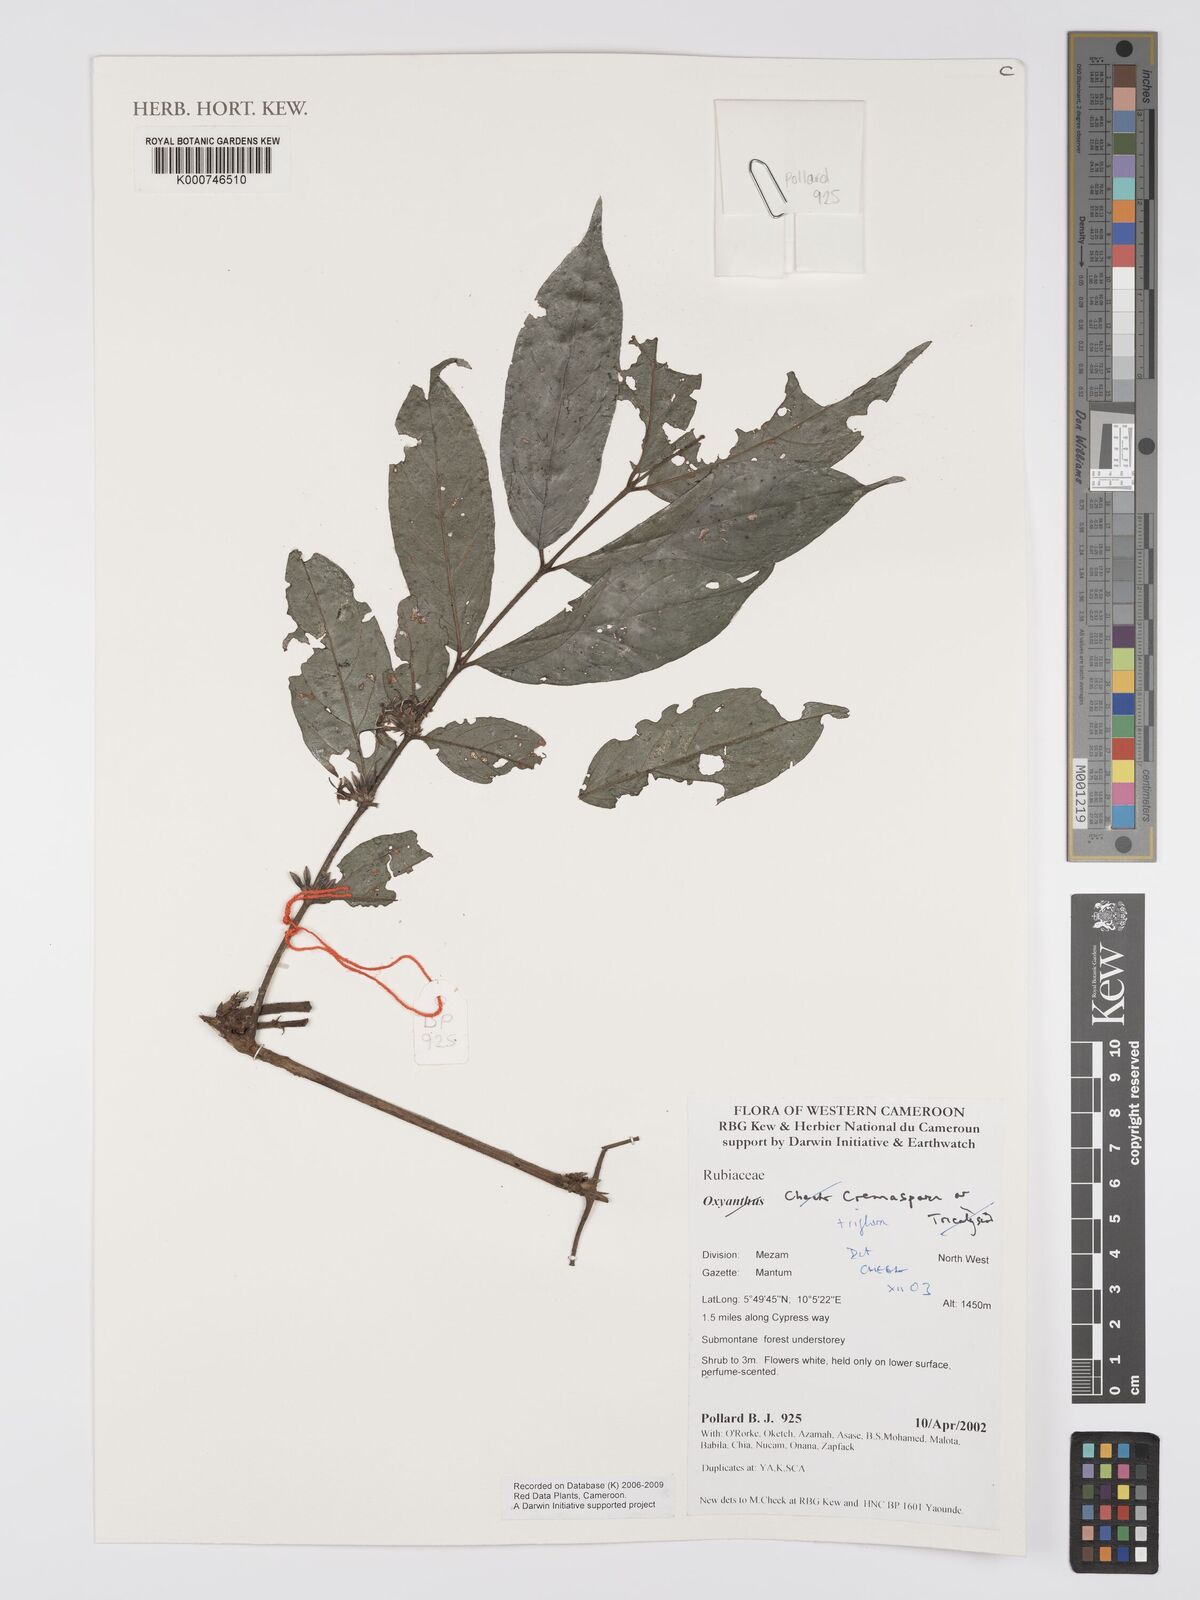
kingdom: Plantae
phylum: Tracheophyta
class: Magnoliopsida
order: Gentianales
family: Rubiaceae
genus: Cremaspora
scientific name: Cremaspora triflora
